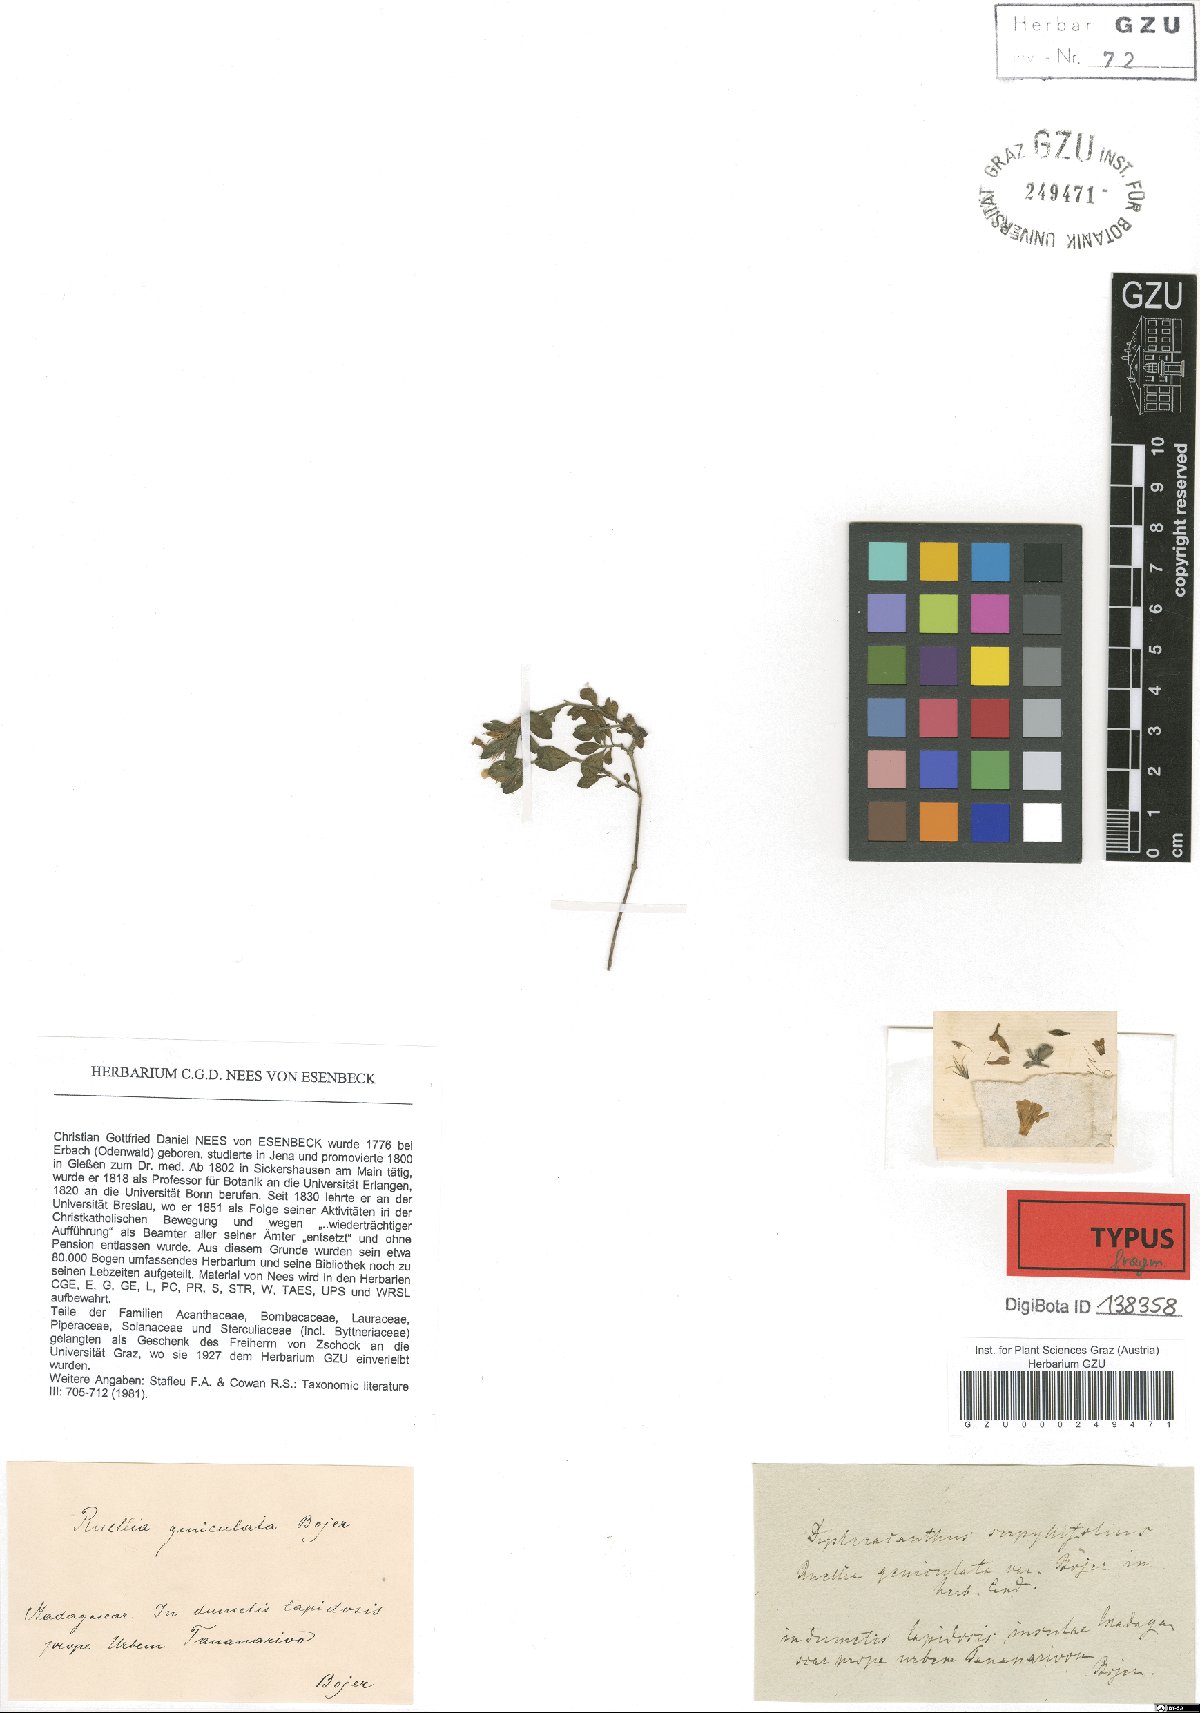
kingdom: Plantae
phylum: Tracheophyta
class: Magnoliopsida
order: Lamiales
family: Acanthaceae
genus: Dyschoriste
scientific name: Dyschoriste serpyllifolia
